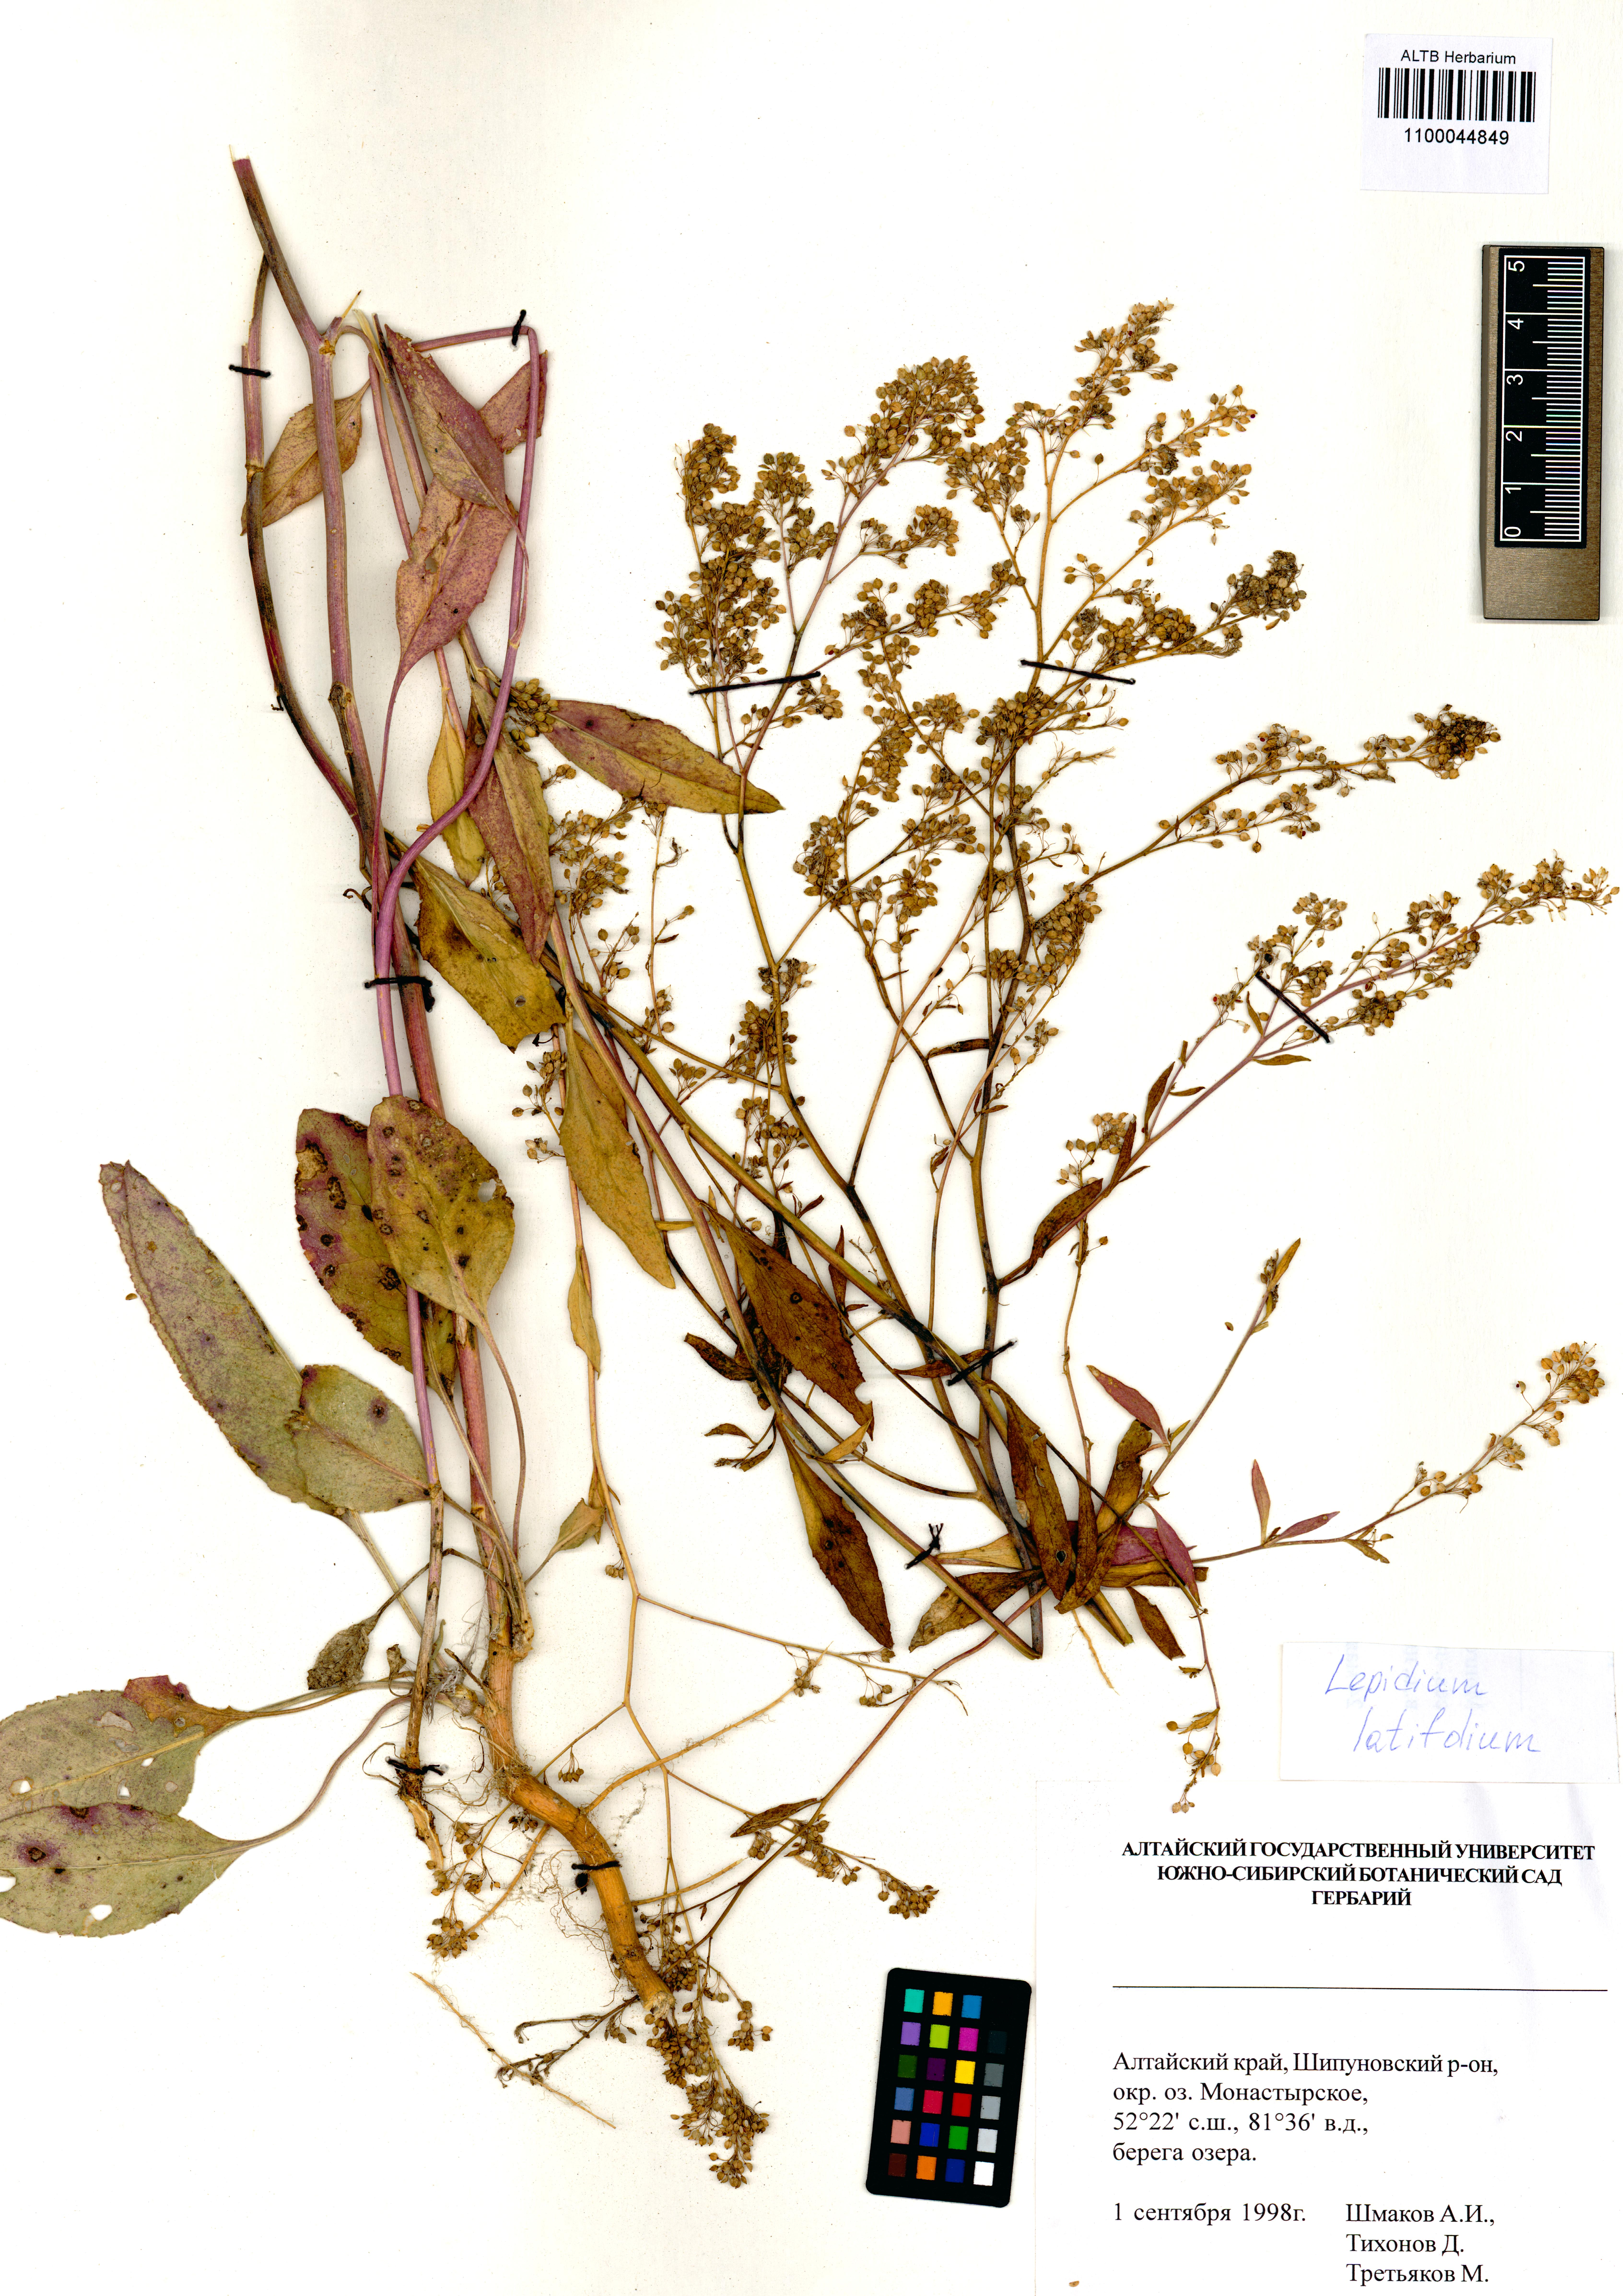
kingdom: Plantae
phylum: Tracheophyta
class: Magnoliopsida
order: Brassicales
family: Brassicaceae
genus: Lepidium
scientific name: Lepidium latifolium
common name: Dittander
